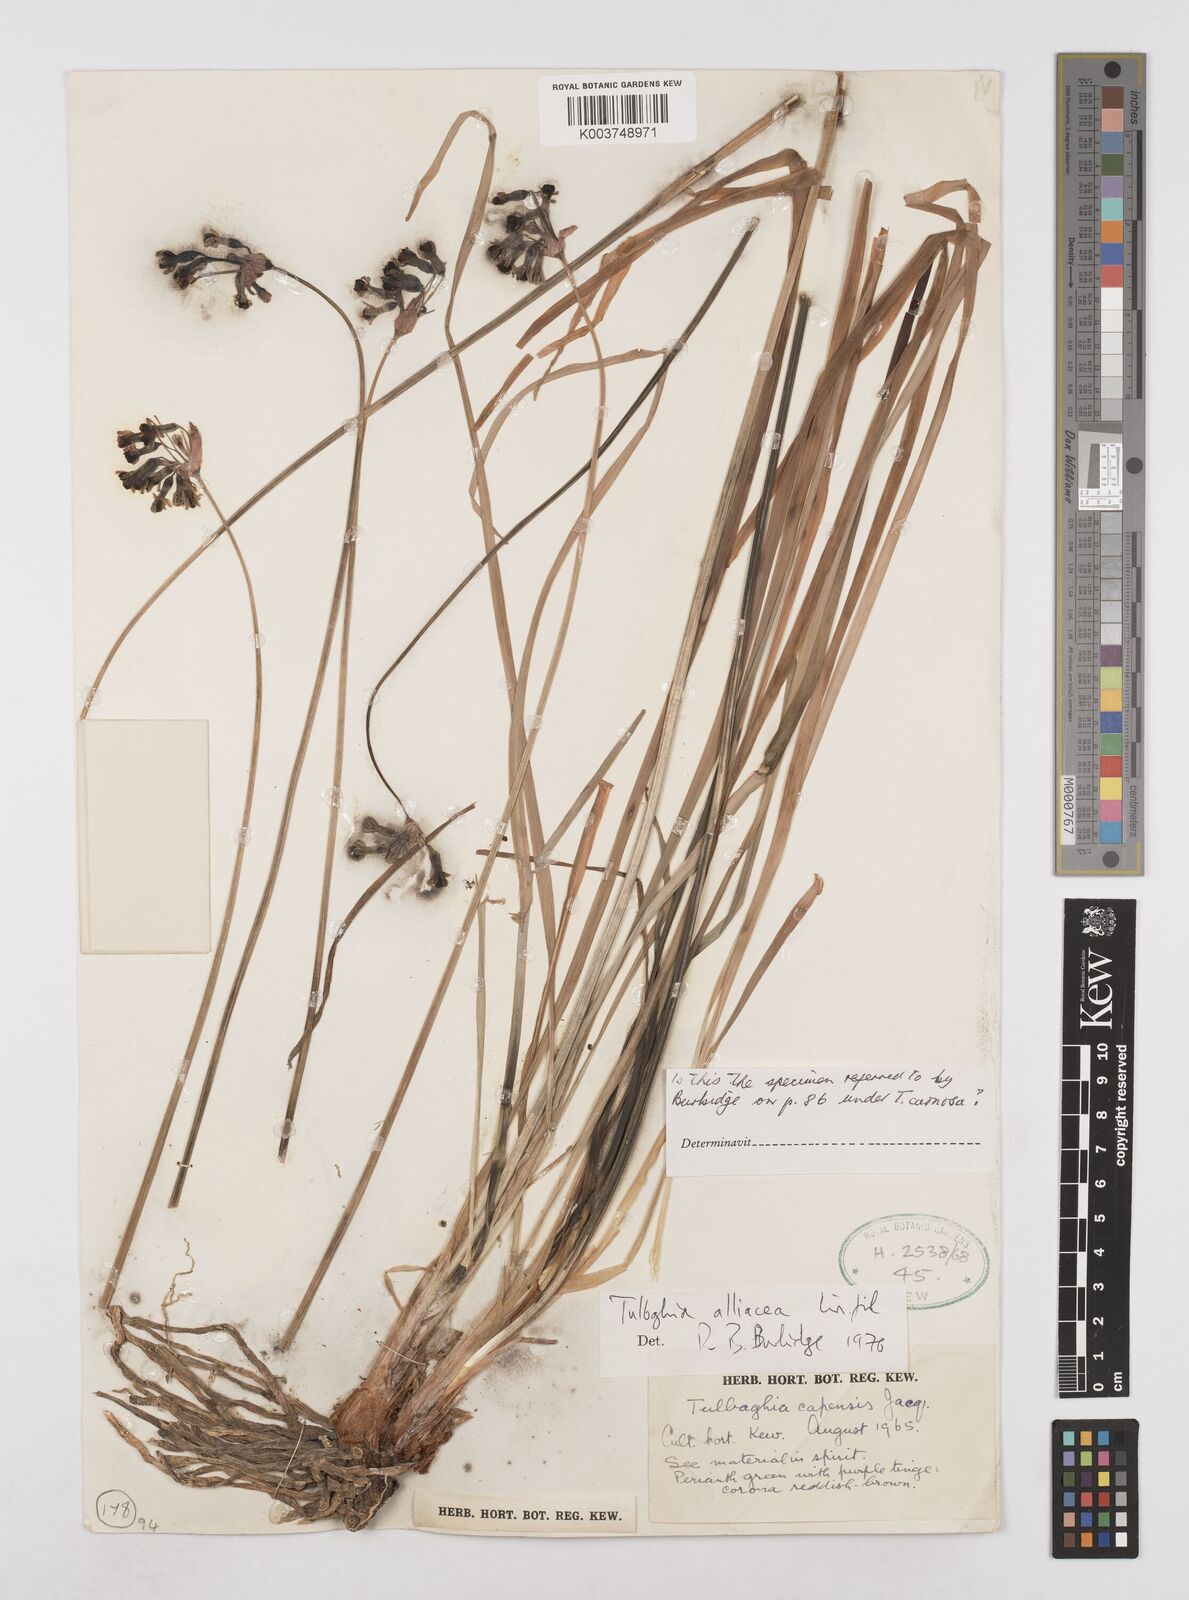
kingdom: Plantae
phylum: Tracheophyta
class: Liliopsida
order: Asparagales
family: Amaryllidaceae
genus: Tulbaghia
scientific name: Tulbaghia verdoornia
